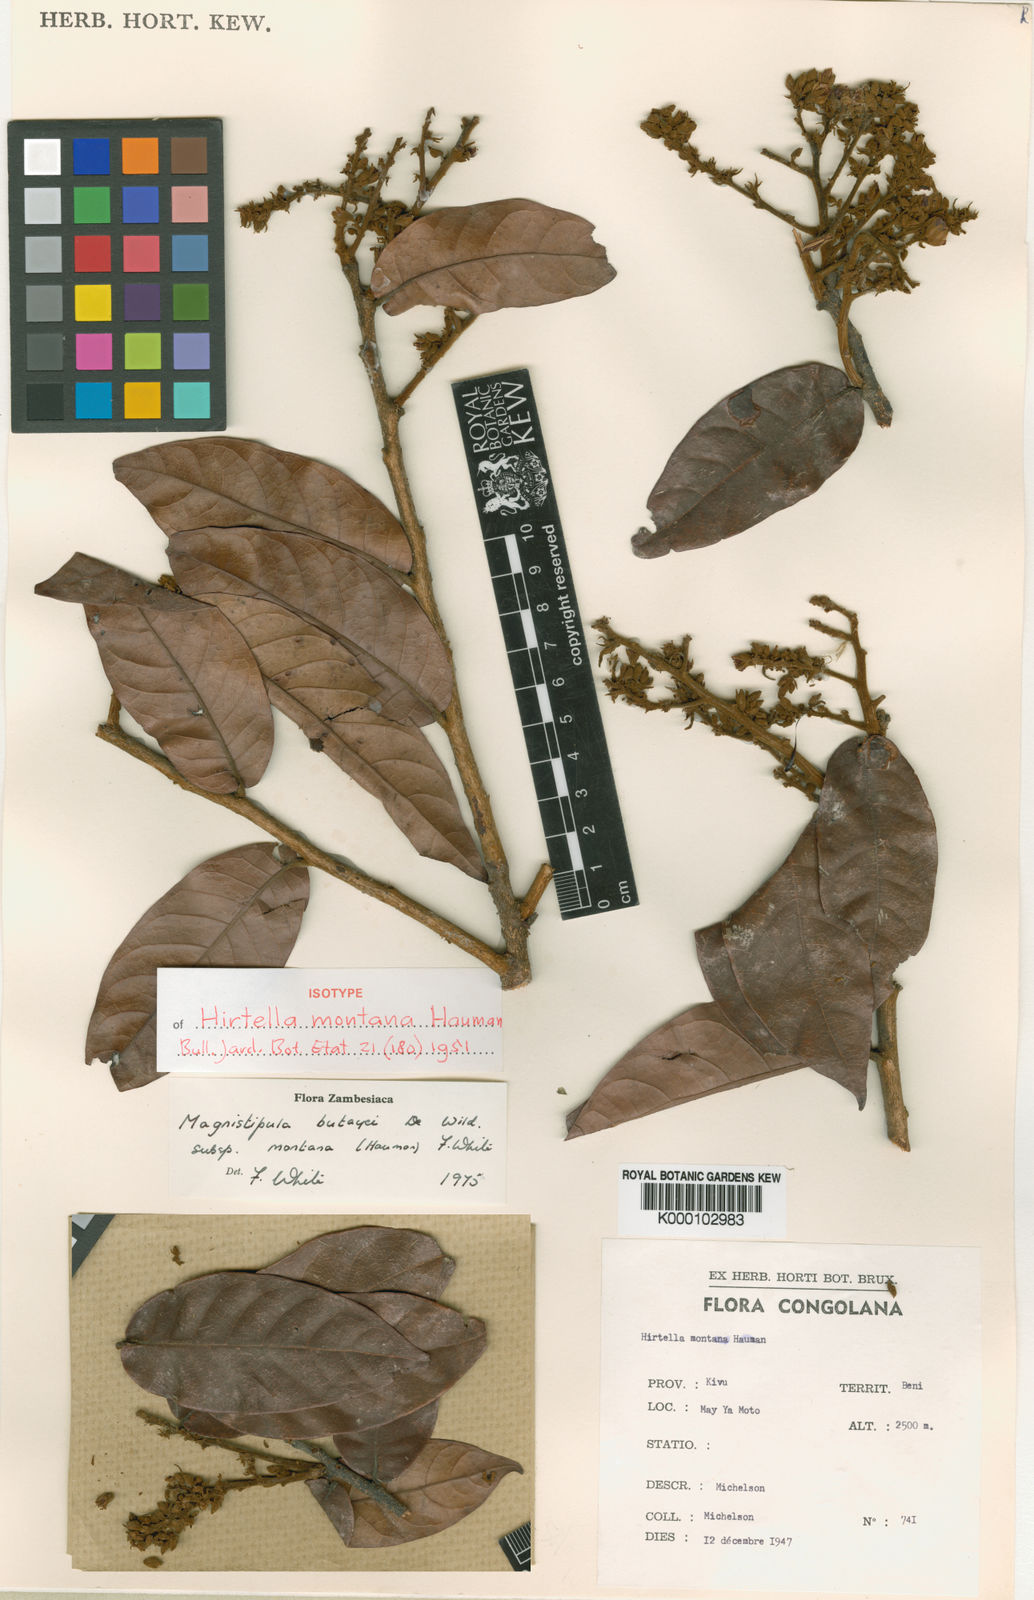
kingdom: Plantae
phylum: Tracheophyta
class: Magnoliopsida
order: Malpighiales
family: Chrysobalanaceae
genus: Magnistipula
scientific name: Magnistipula butayei
